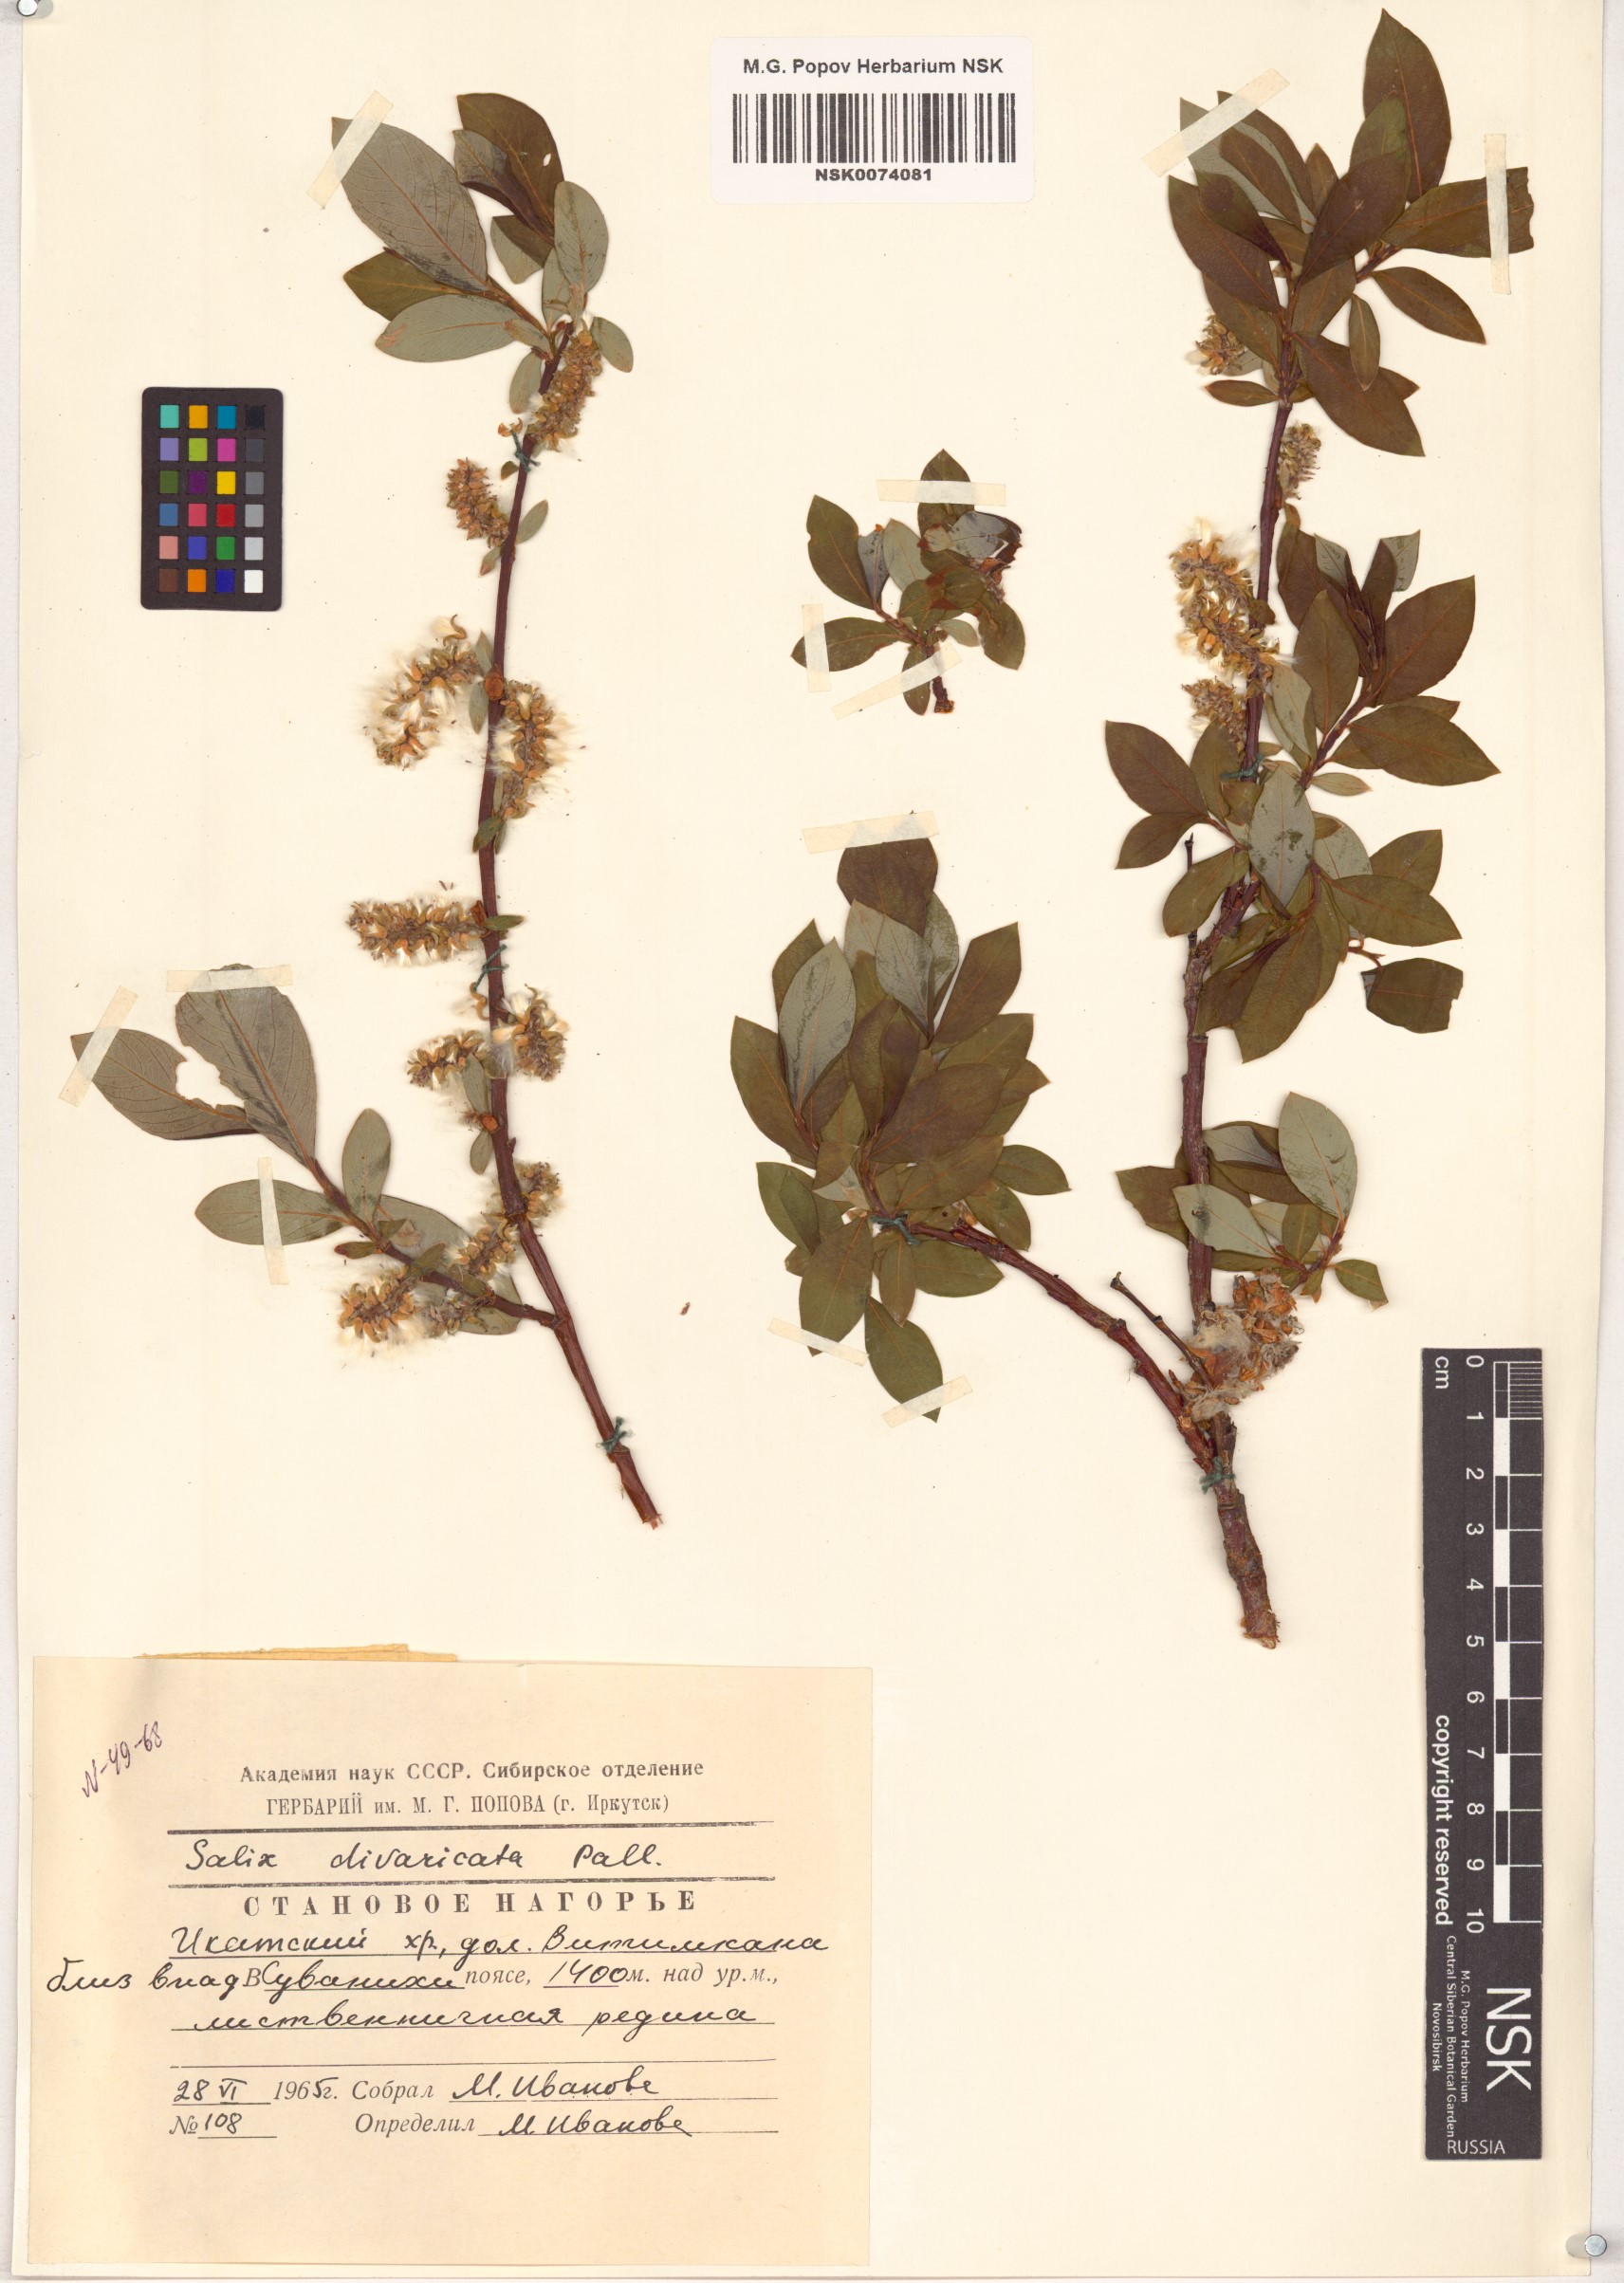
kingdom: Plantae
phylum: Tracheophyta
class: Magnoliopsida
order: Malpighiales
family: Salicaceae
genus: Salix
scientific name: Salix divaricata
